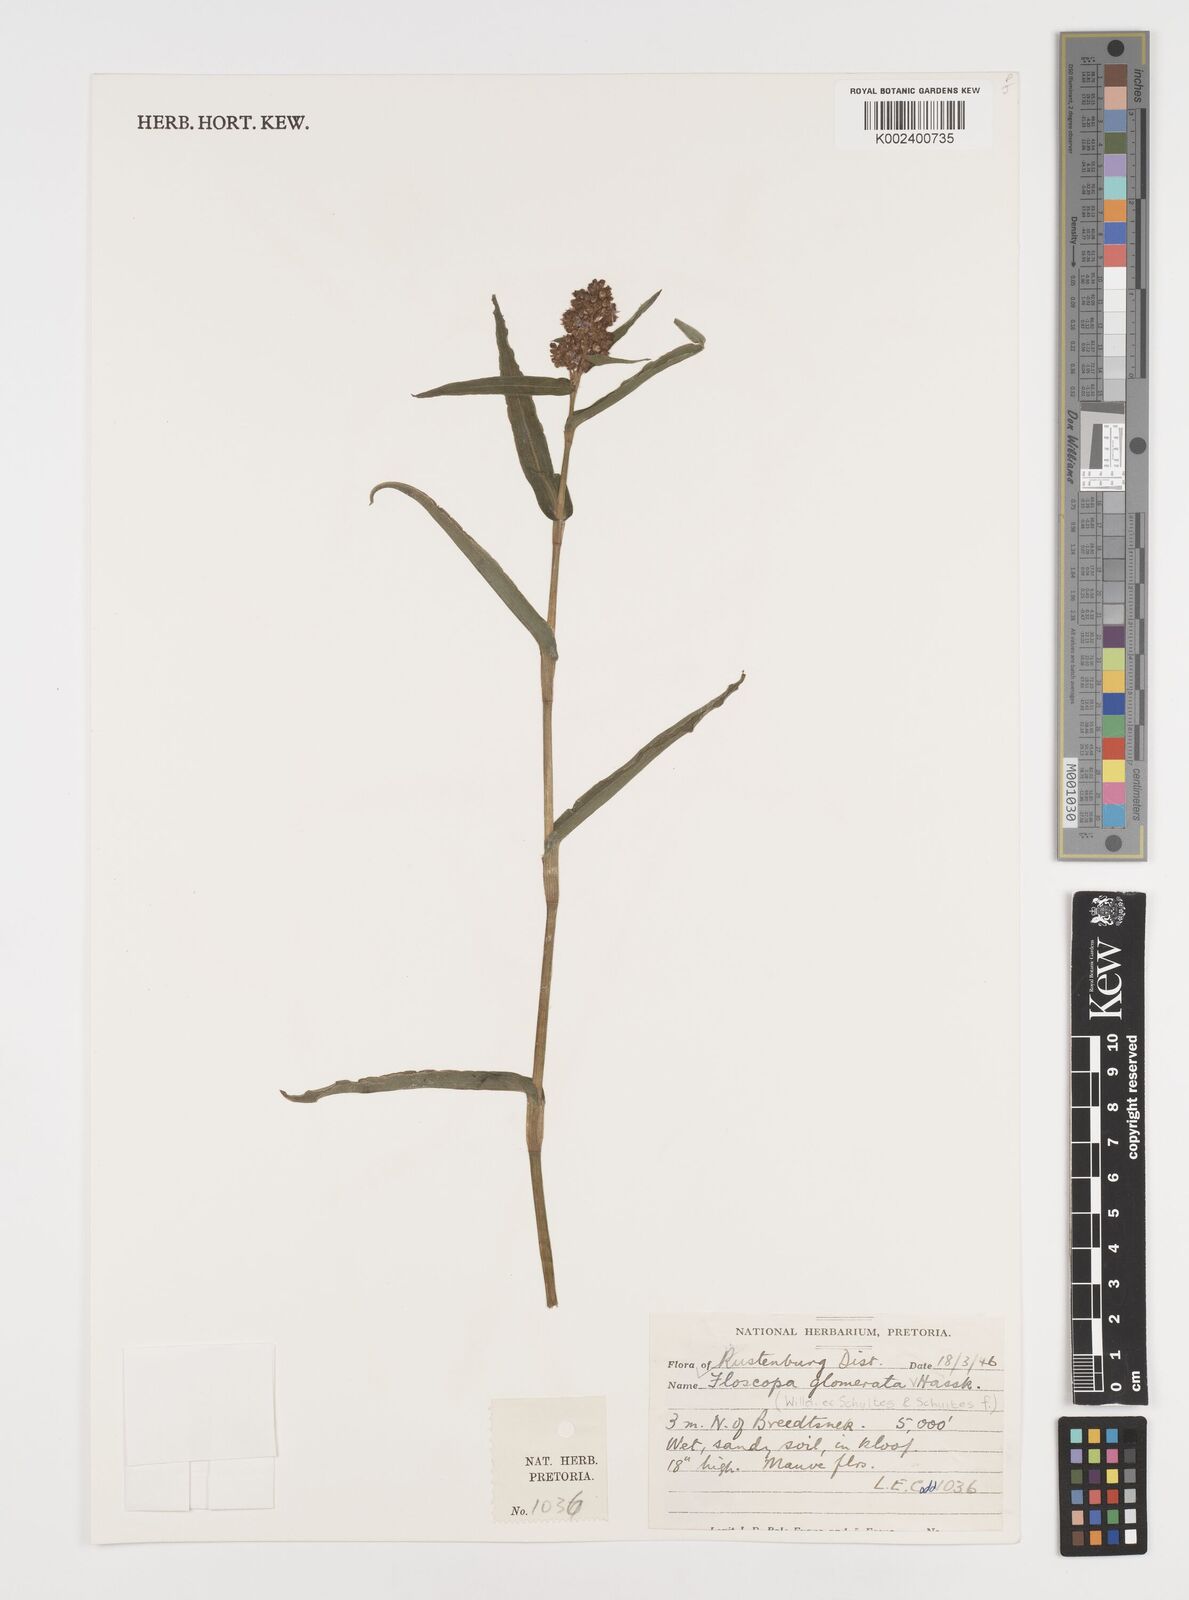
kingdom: Plantae
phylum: Tracheophyta
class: Liliopsida
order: Commelinales
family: Commelinaceae
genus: Floscopa
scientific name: Floscopa glomerata
